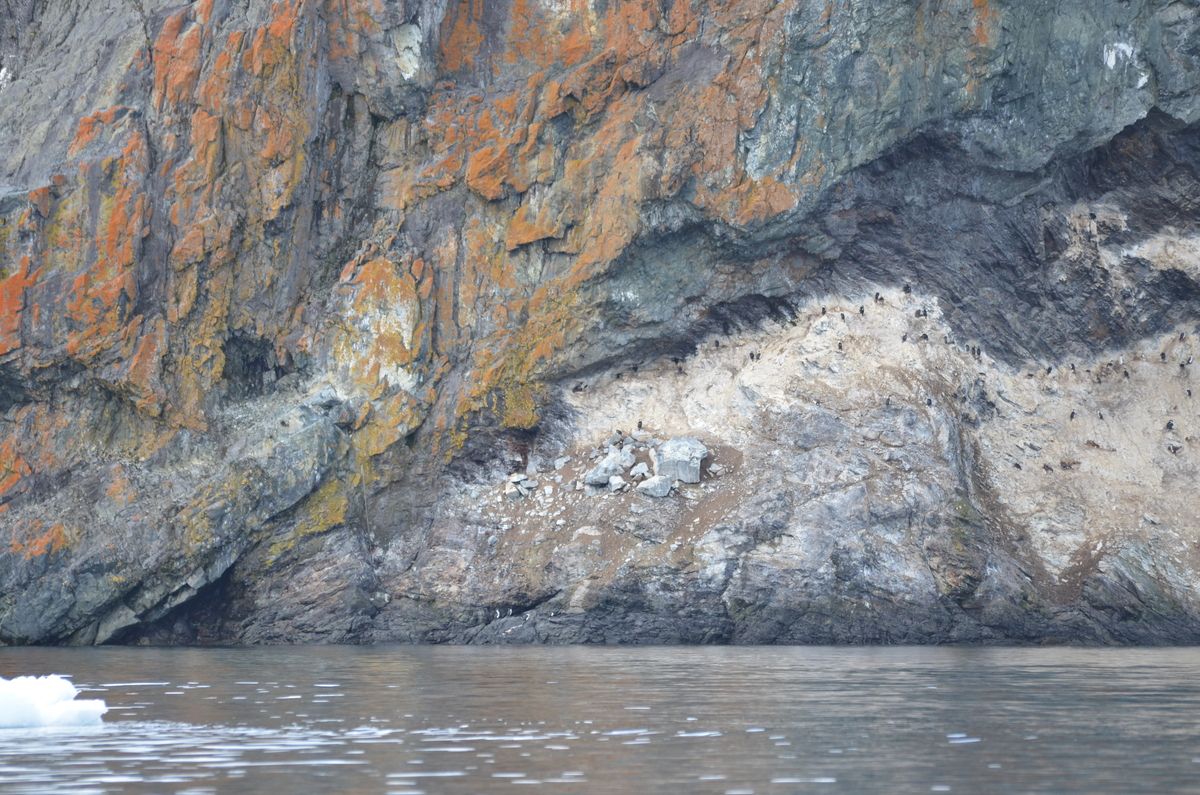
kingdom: Animalia
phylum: Chordata
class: Aves
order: Suliformes
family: Phalacrocoracidae
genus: Leucocarbo
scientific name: Leucocarbo atriceps
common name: Antarctic shag
